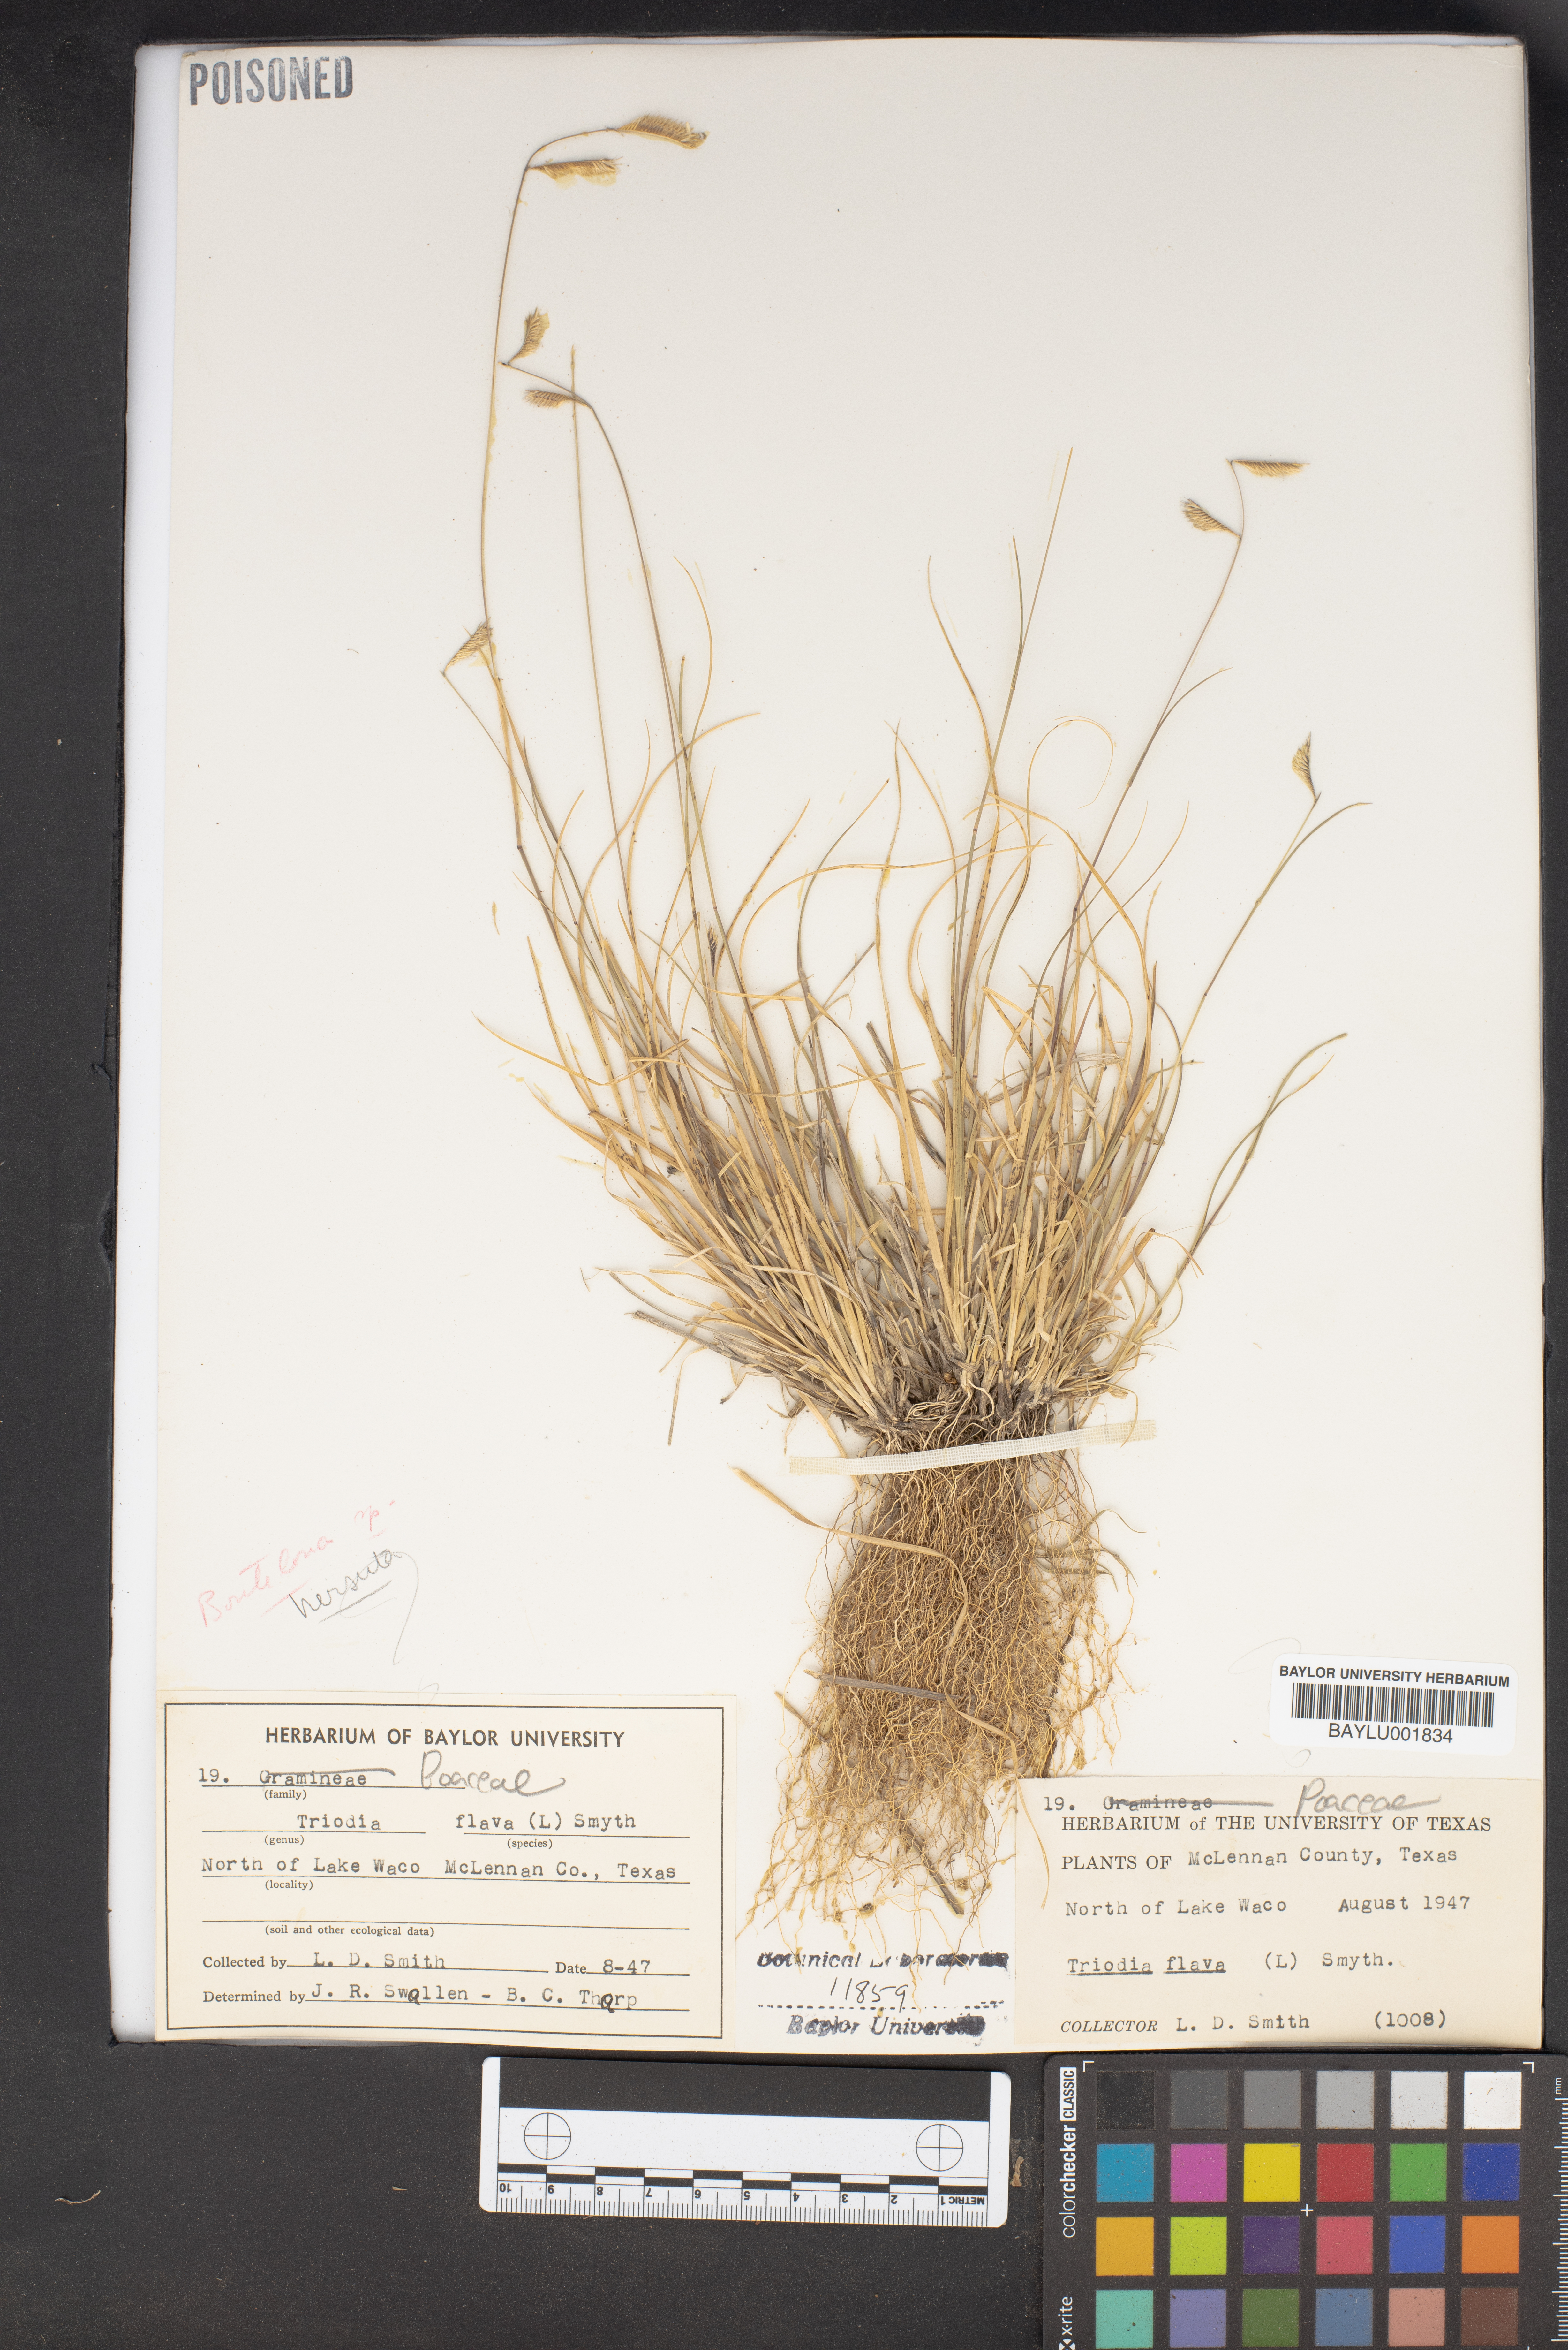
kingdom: Plantae
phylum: Tracheophyta
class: Liliopsida
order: Poales
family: Poaceae
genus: Tridens
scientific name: Tridens flavus
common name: Purpletop
